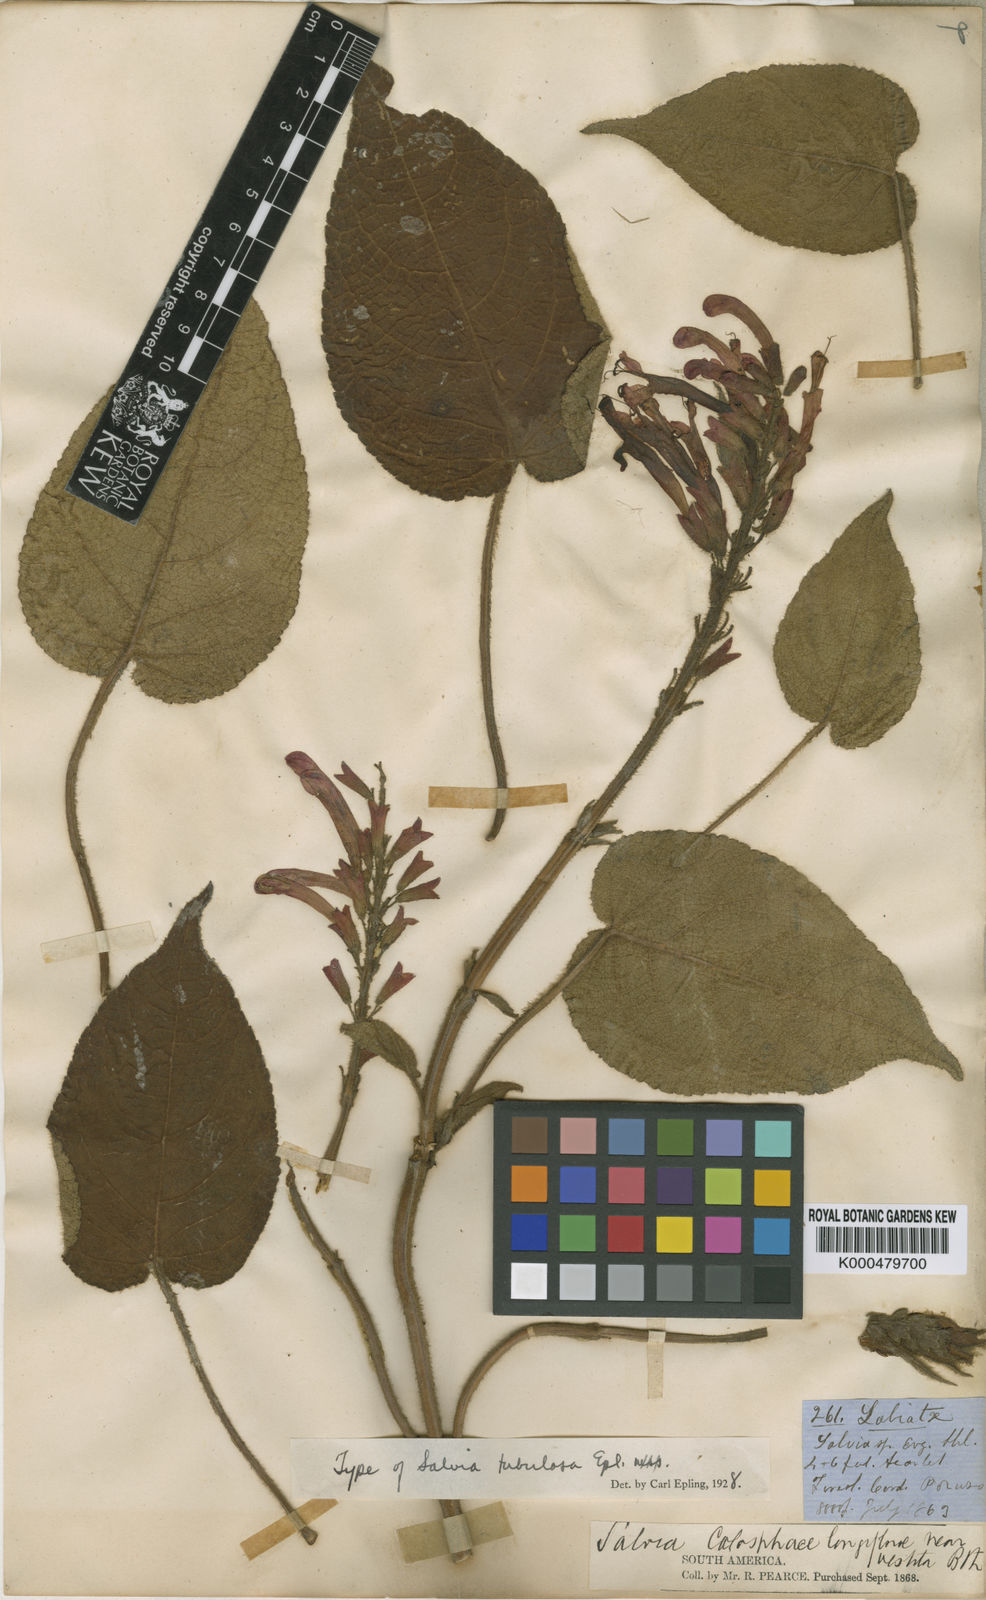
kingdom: Plantae
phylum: Tracheophyta
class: Magnoliopsida
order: Lamiales
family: Lamiaceae
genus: Salvia
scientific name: Salvia tubulosa
